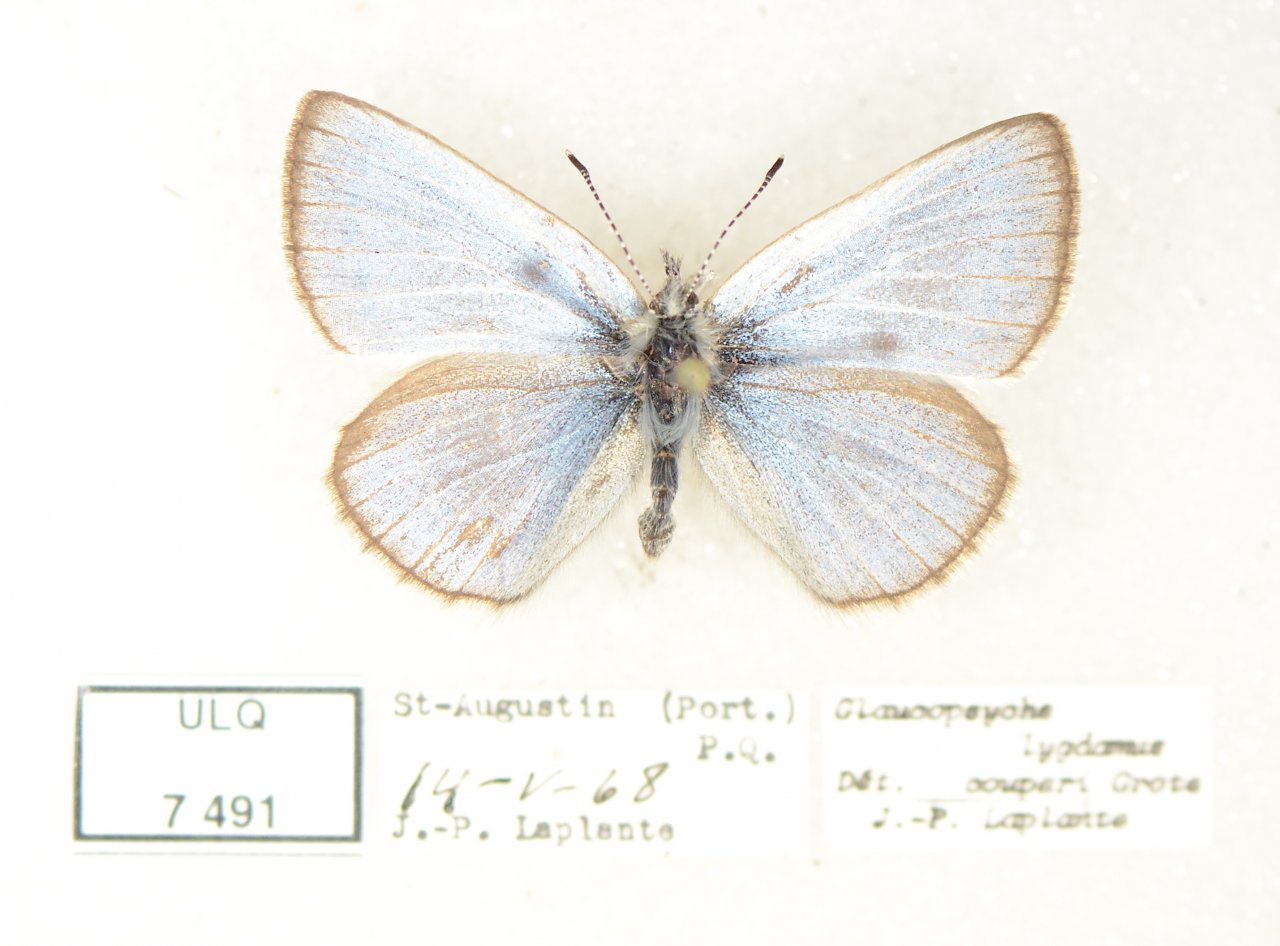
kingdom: Animalia
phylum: Arthropoda
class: Insecta
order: Lepidoptera
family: Lycaenidae
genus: Glaucopsyche
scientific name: Glaucopsyche lygdamus
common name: Silvery Blue
